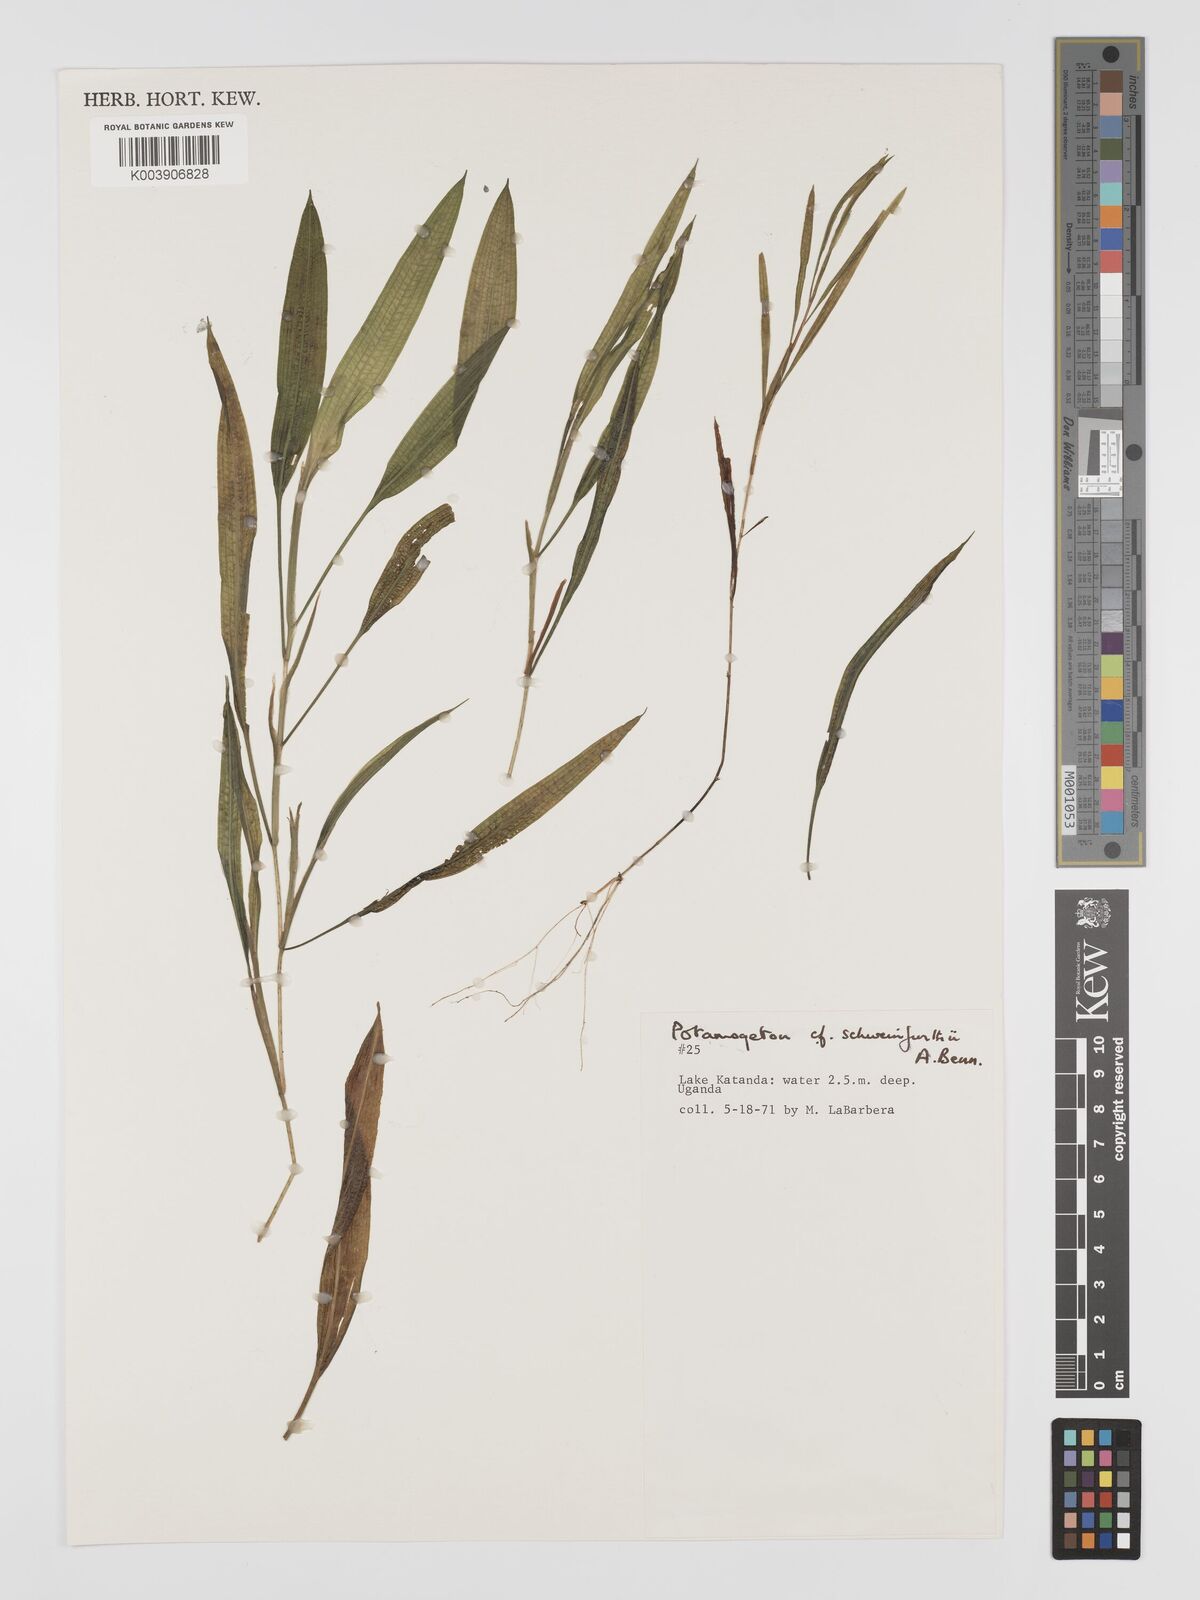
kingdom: Plantae
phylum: Tracheophyta
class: Liliopsida
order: Alismatales
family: Potamogetonaceae
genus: Potamogeton
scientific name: Potamogeton schweinfurthii
